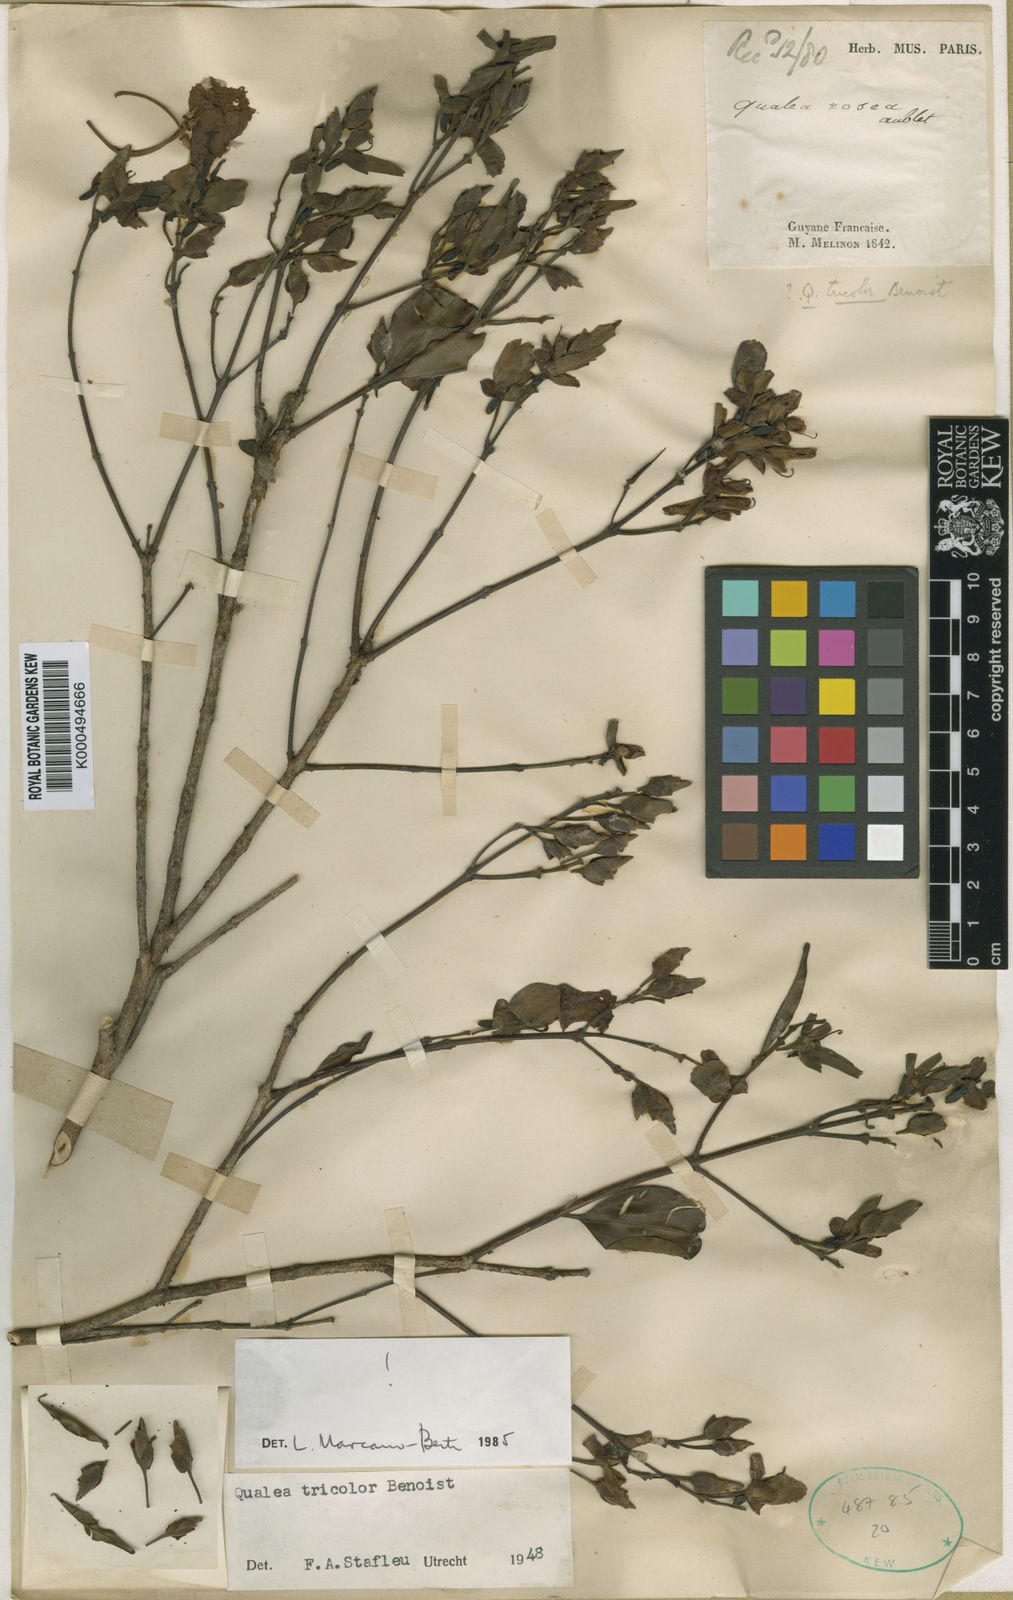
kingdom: Plantae
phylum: Tracheophyta
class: Magnoliopsida
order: Myrtales
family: Vochysiaceae
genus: Qualea
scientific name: Qualea tricolor
